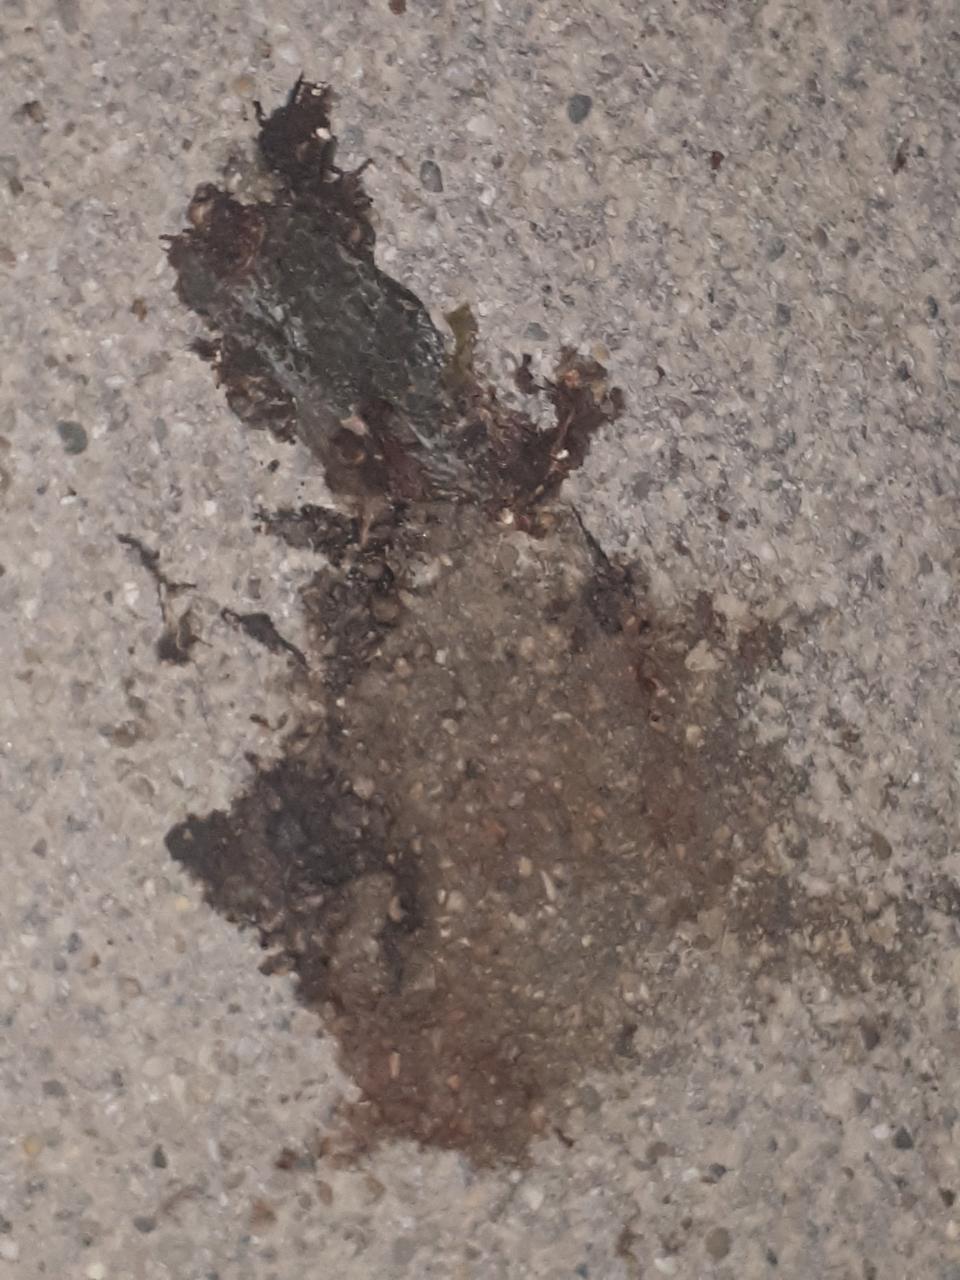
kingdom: Animalia
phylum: Chordata
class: Amphibia
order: Anura
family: Bufonidae
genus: Bufotes
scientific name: Bufotes viridis
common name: European green toad
